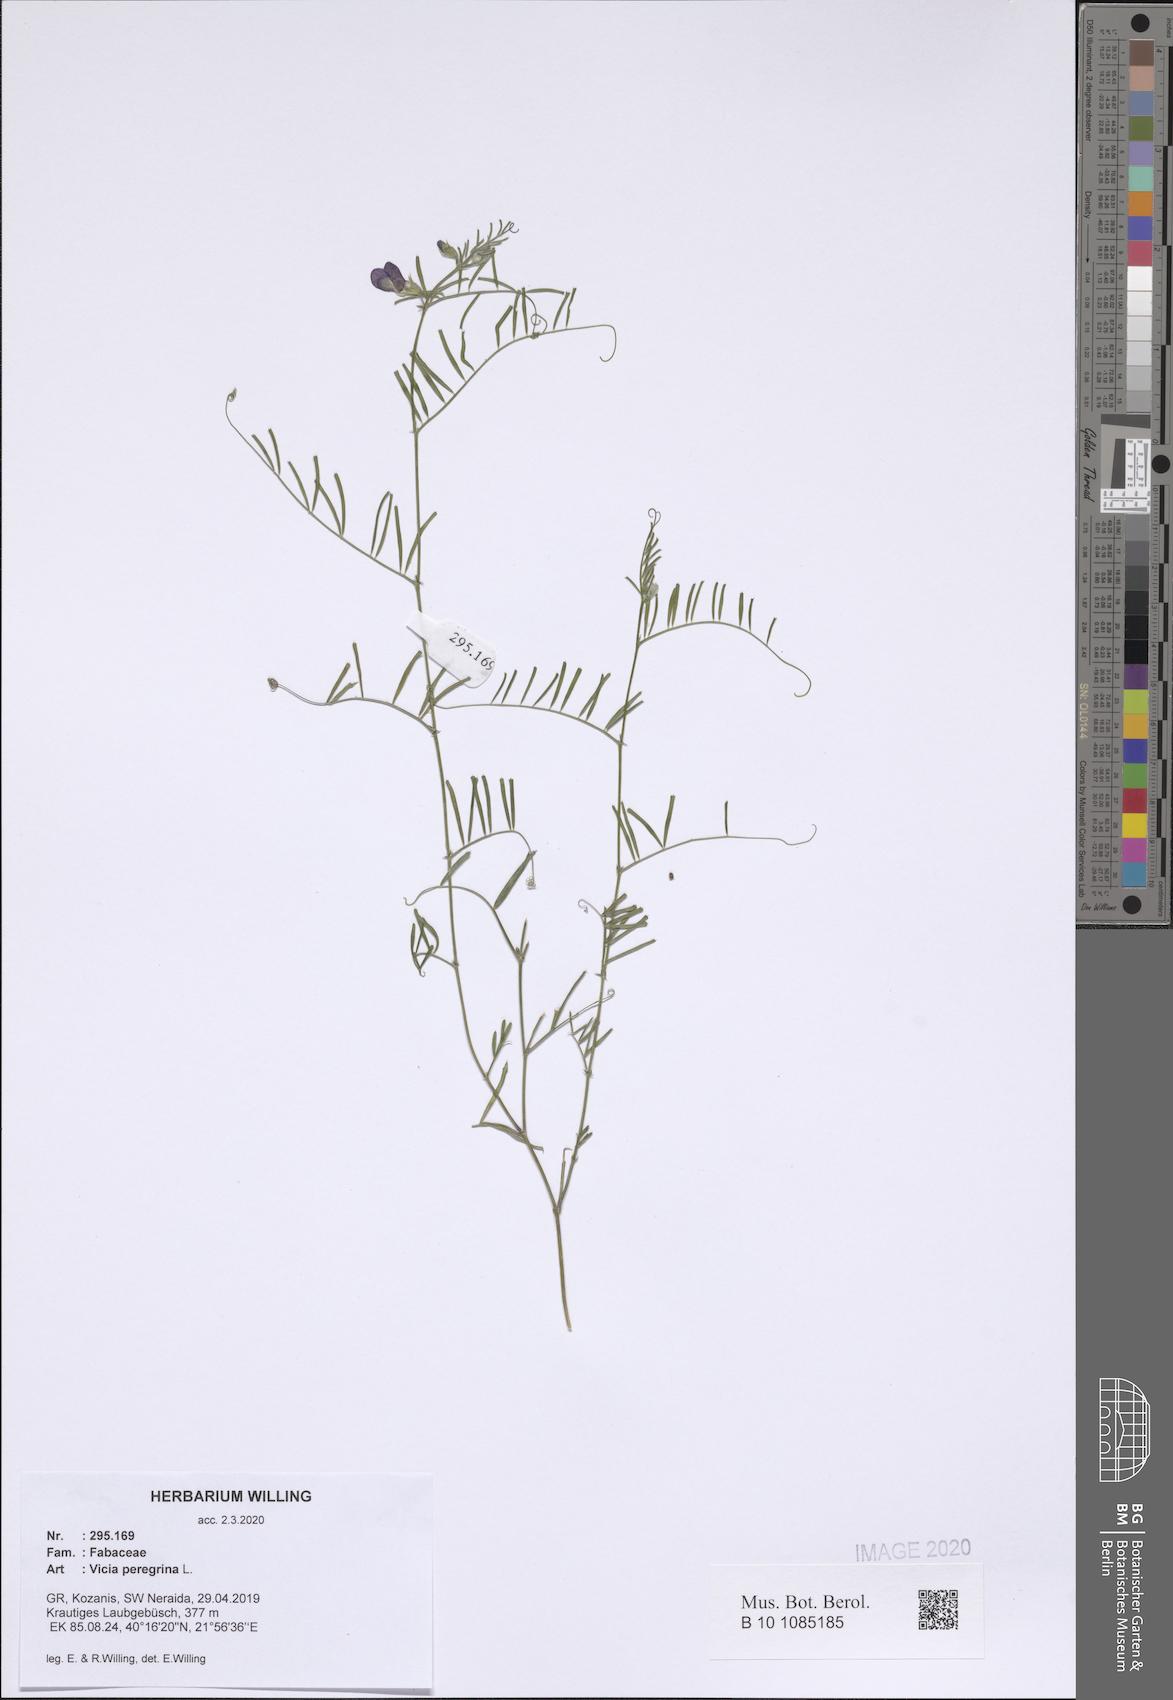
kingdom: Plantae
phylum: Tracheophyta
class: Magnoliopsida
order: Fabales
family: Fabaceae
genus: Vicia
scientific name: Vicia peregrina
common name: Broad-pod vetch
